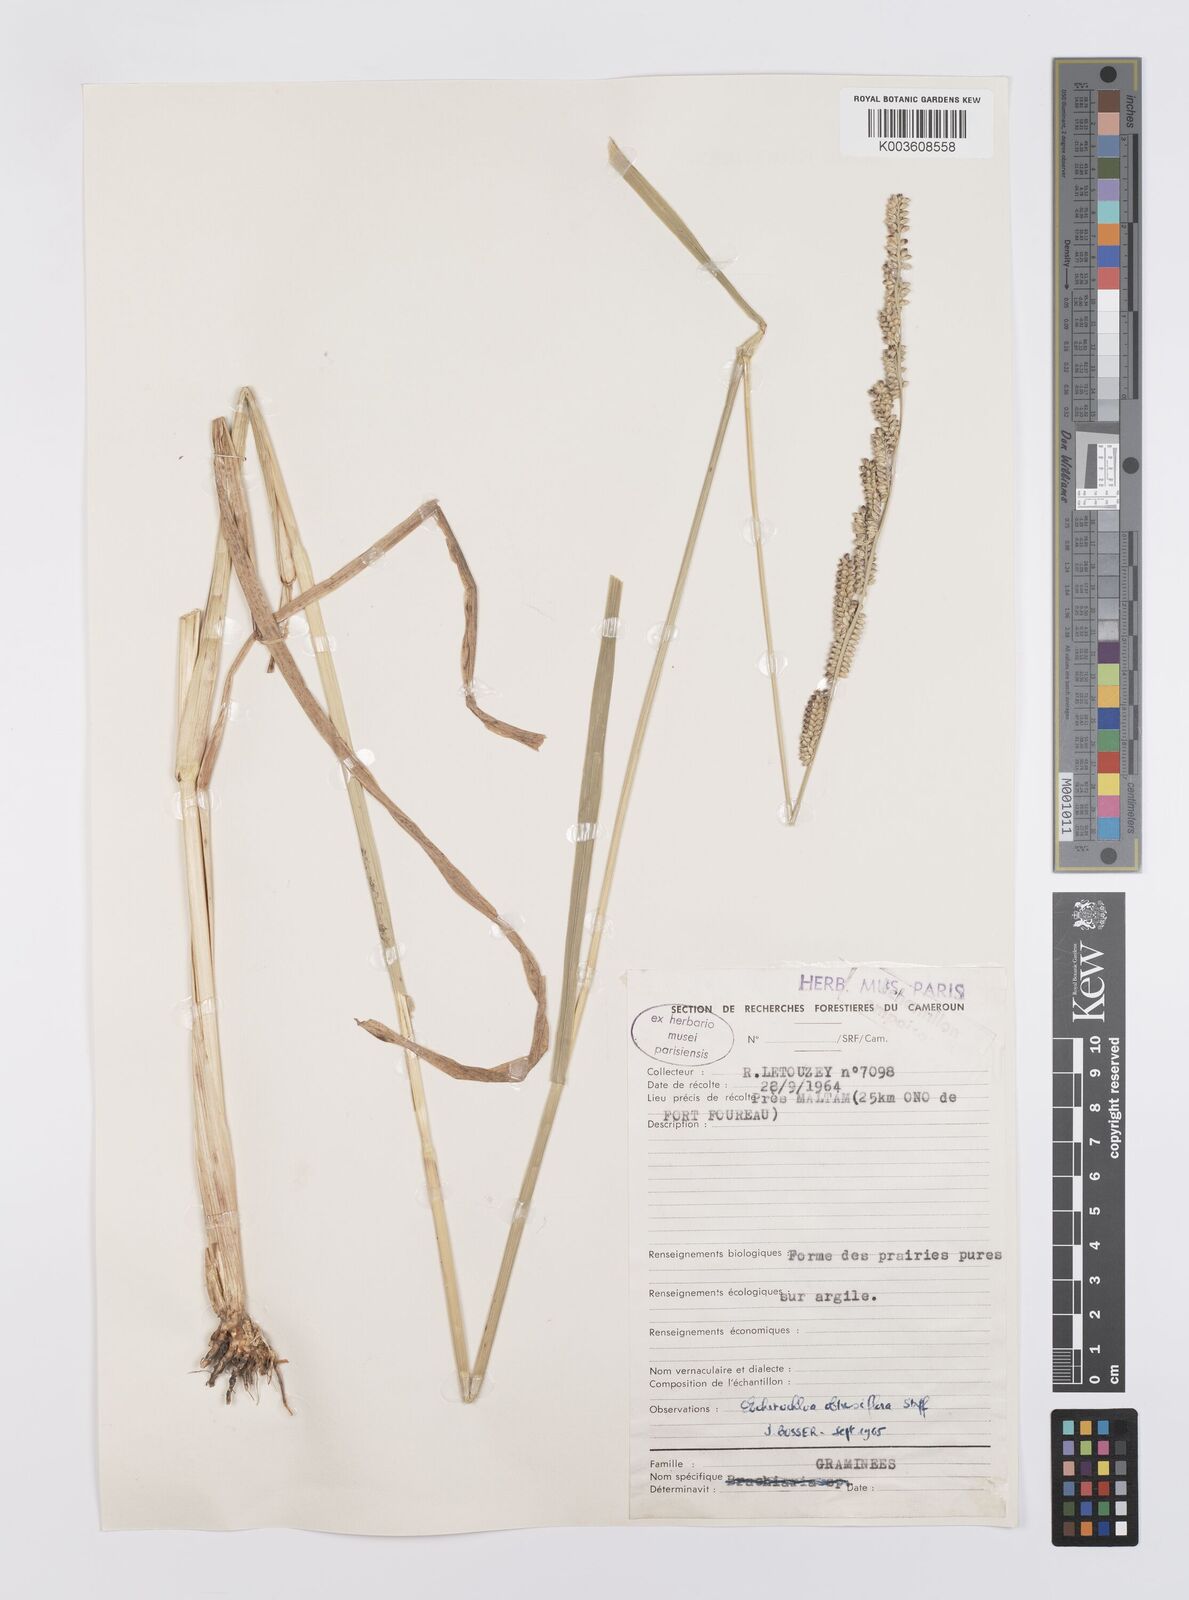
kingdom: Plantae
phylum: Tracheophyta
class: Liliopsida
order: Poales
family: Poaceae
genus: Echinochloa
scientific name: Echinochloa obtusiflora
